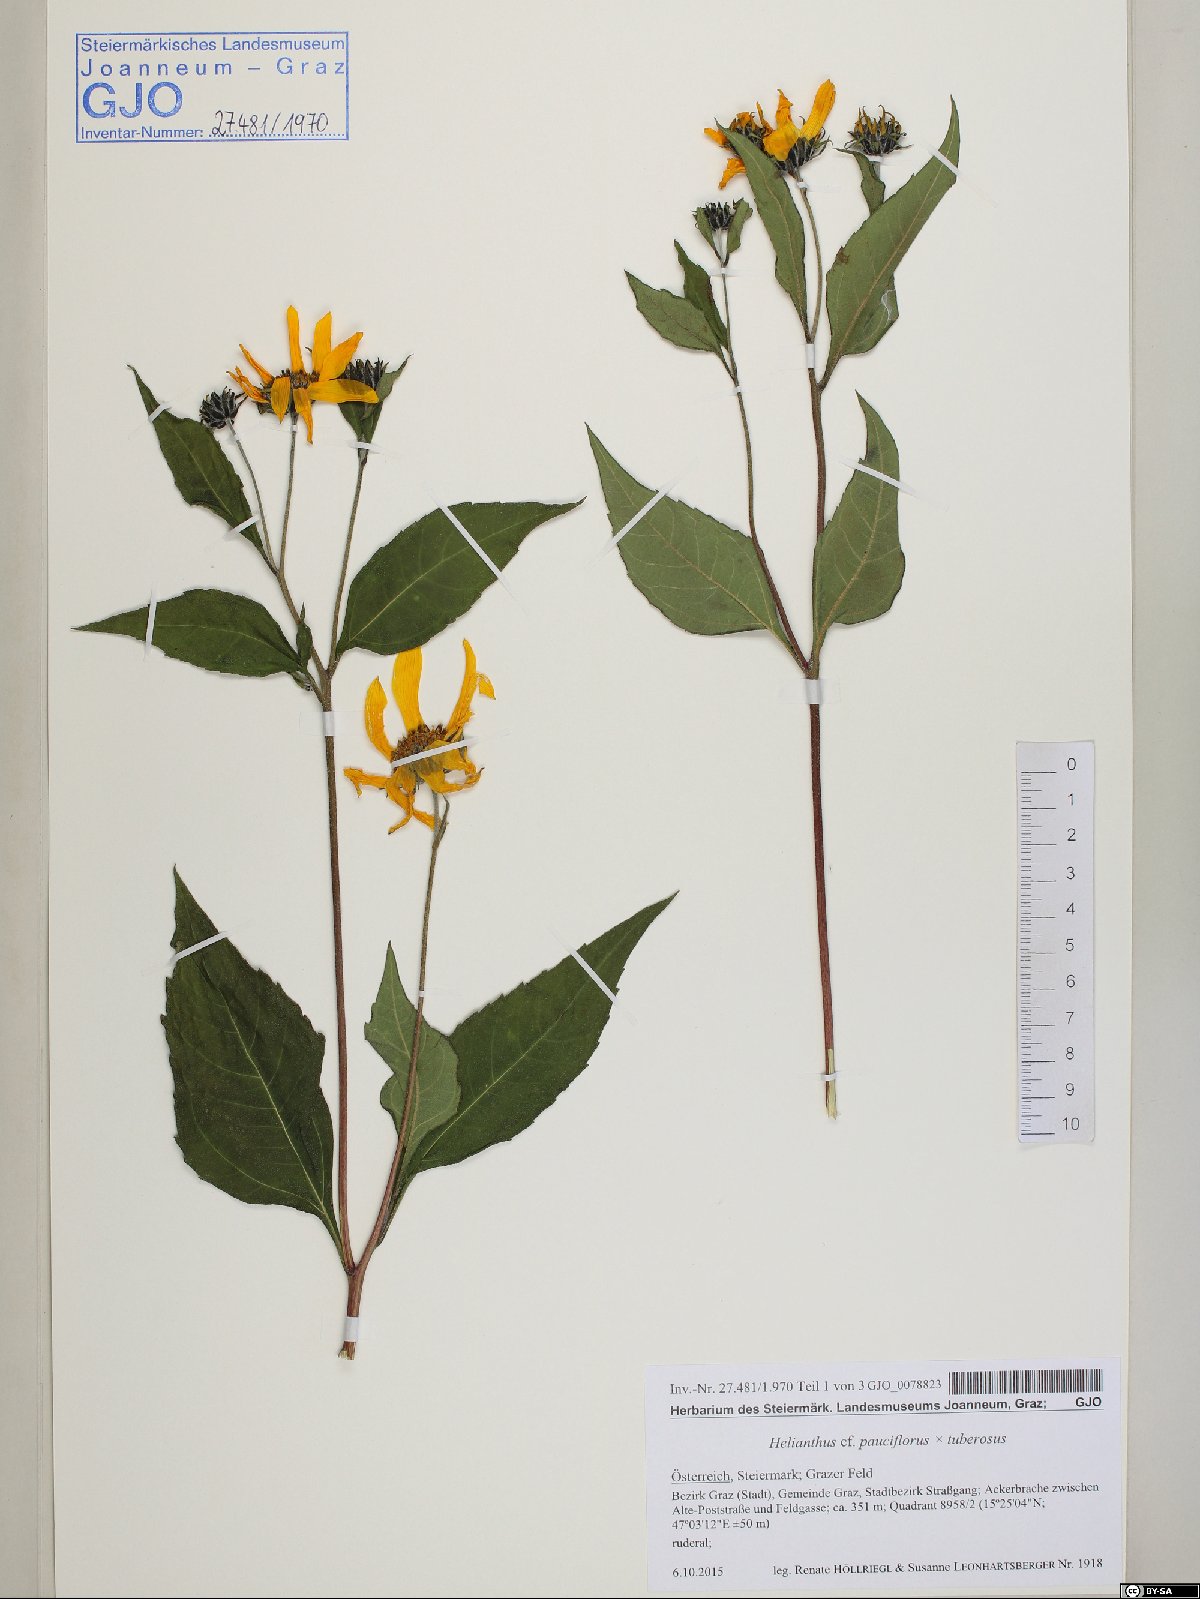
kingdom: Plantae
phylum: Tracheophyta
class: Magnoliopsida
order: Asterales
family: Asteraceae
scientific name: Asteraceae
